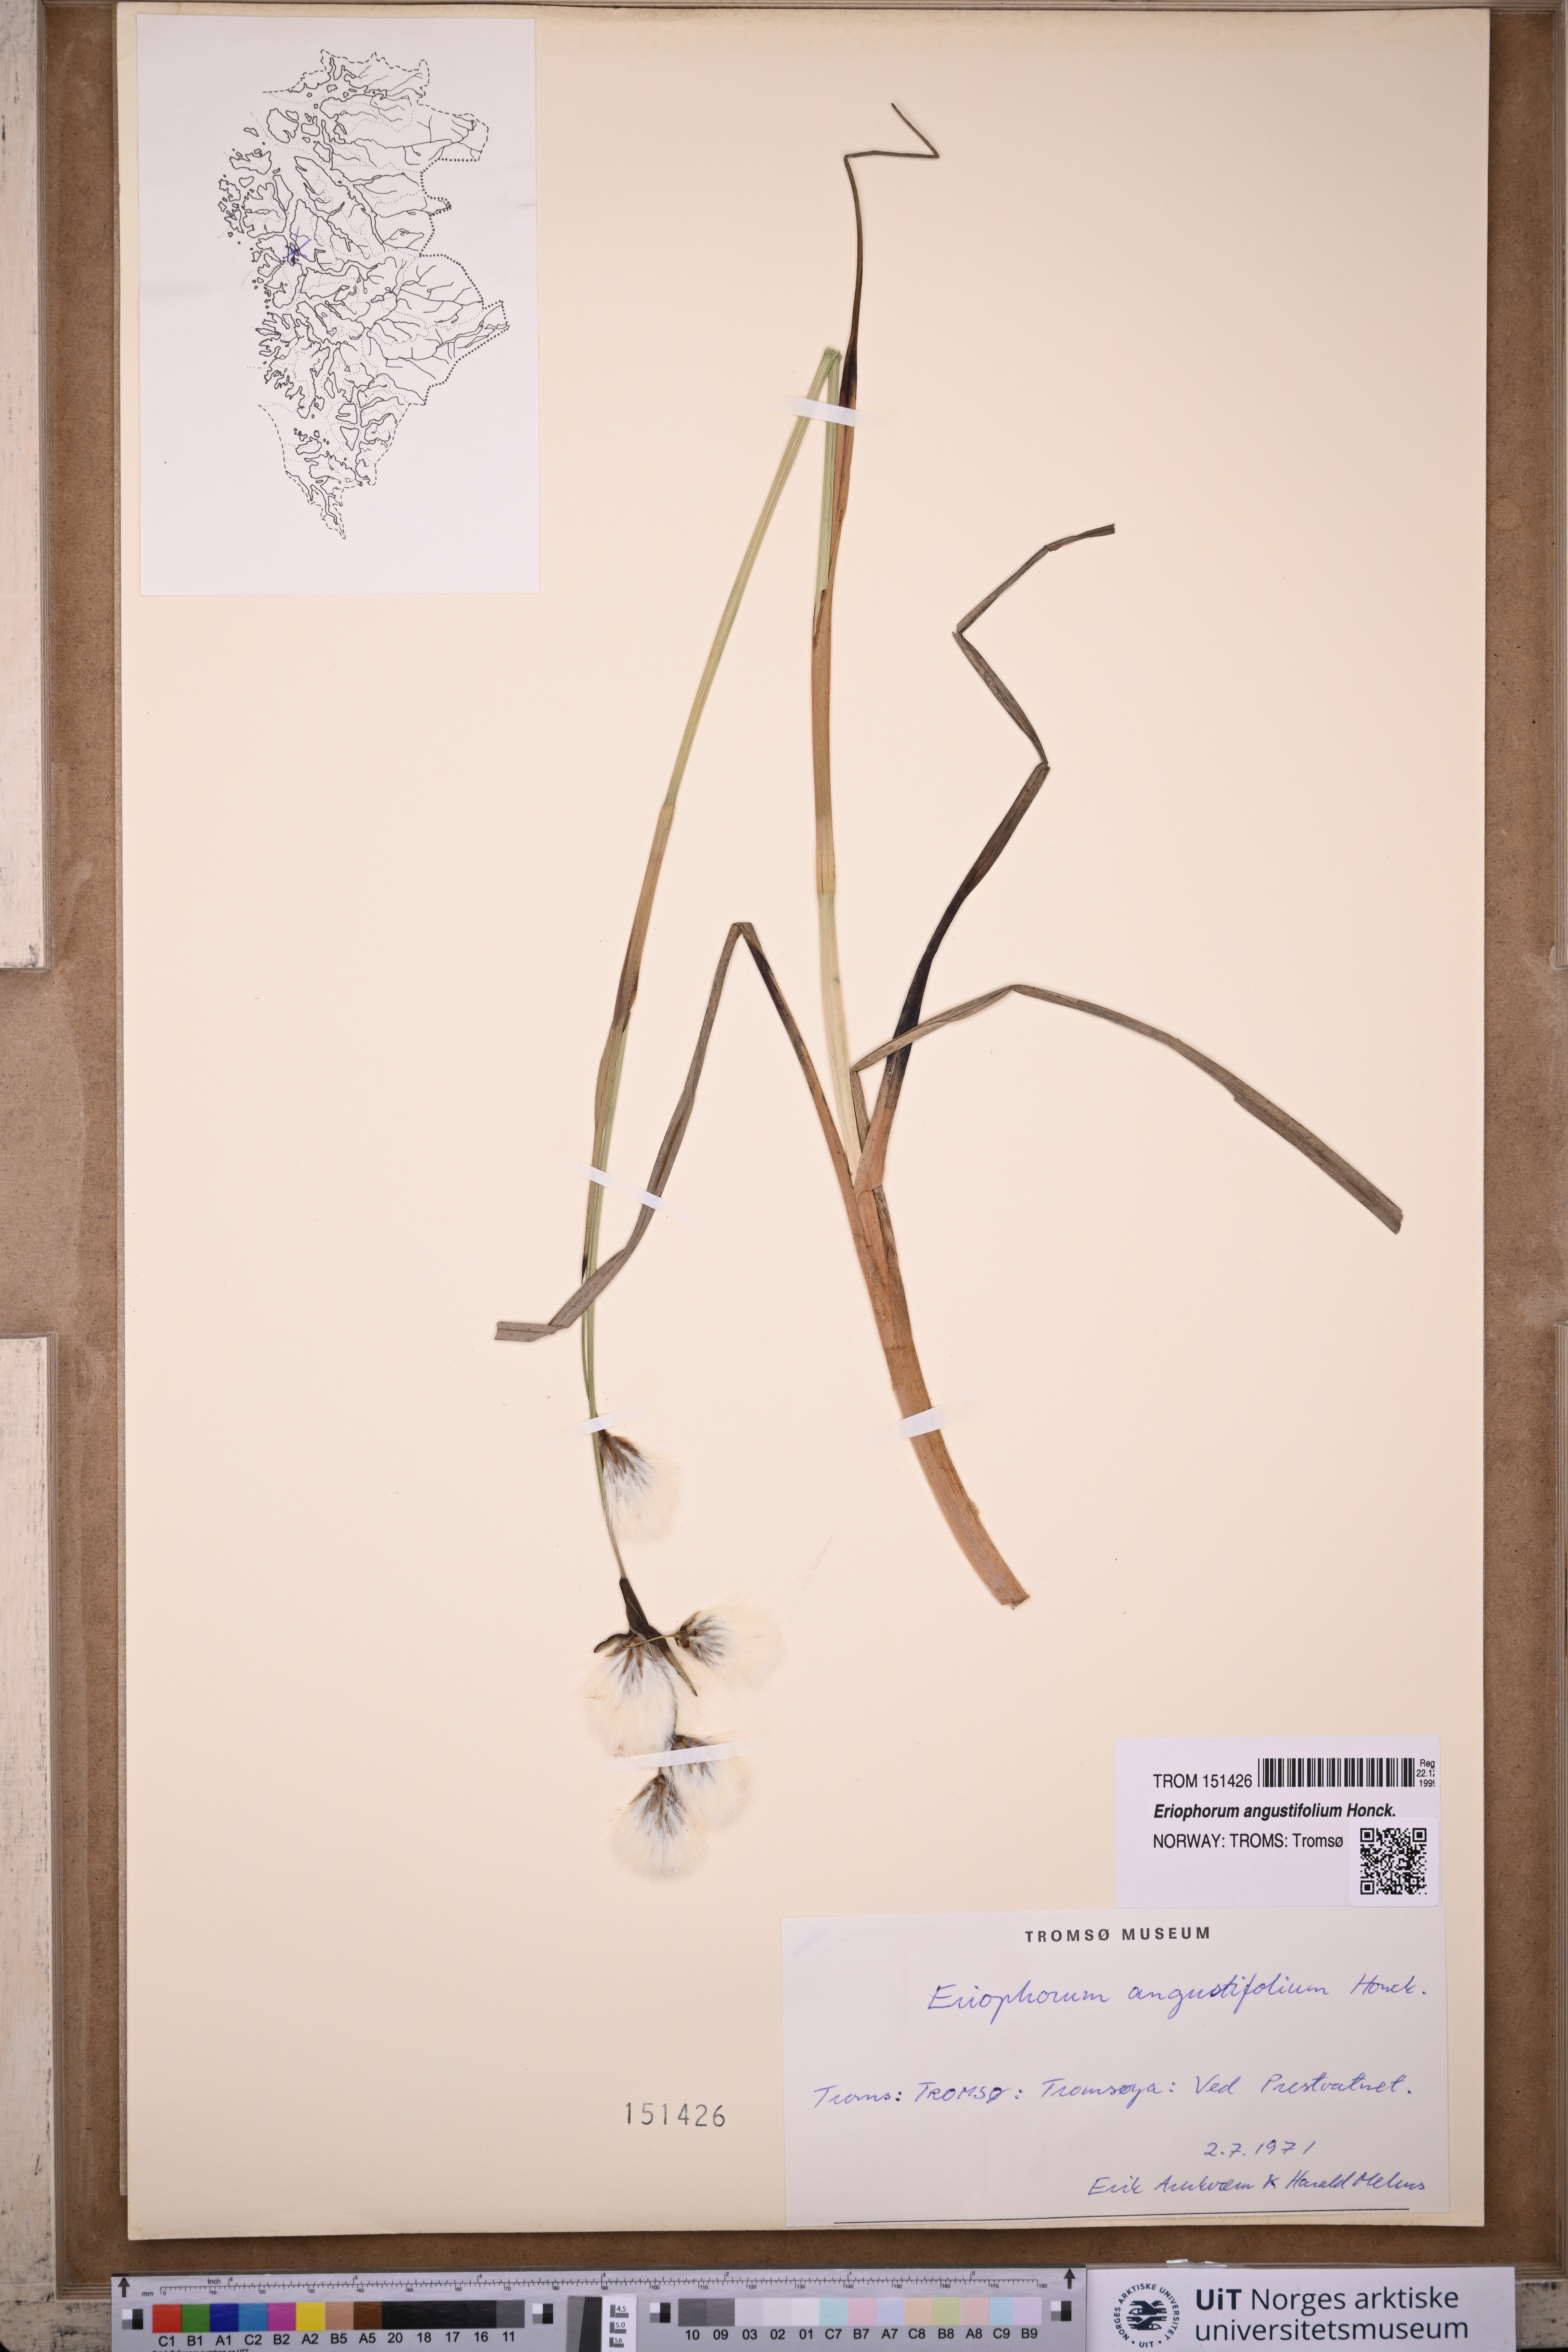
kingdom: Plantae
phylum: Tracheophyta
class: Liliopsida
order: Poales
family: Cyperaceae
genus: Eriophorum
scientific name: Eriophorum angustifolium
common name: Common cottongrass
